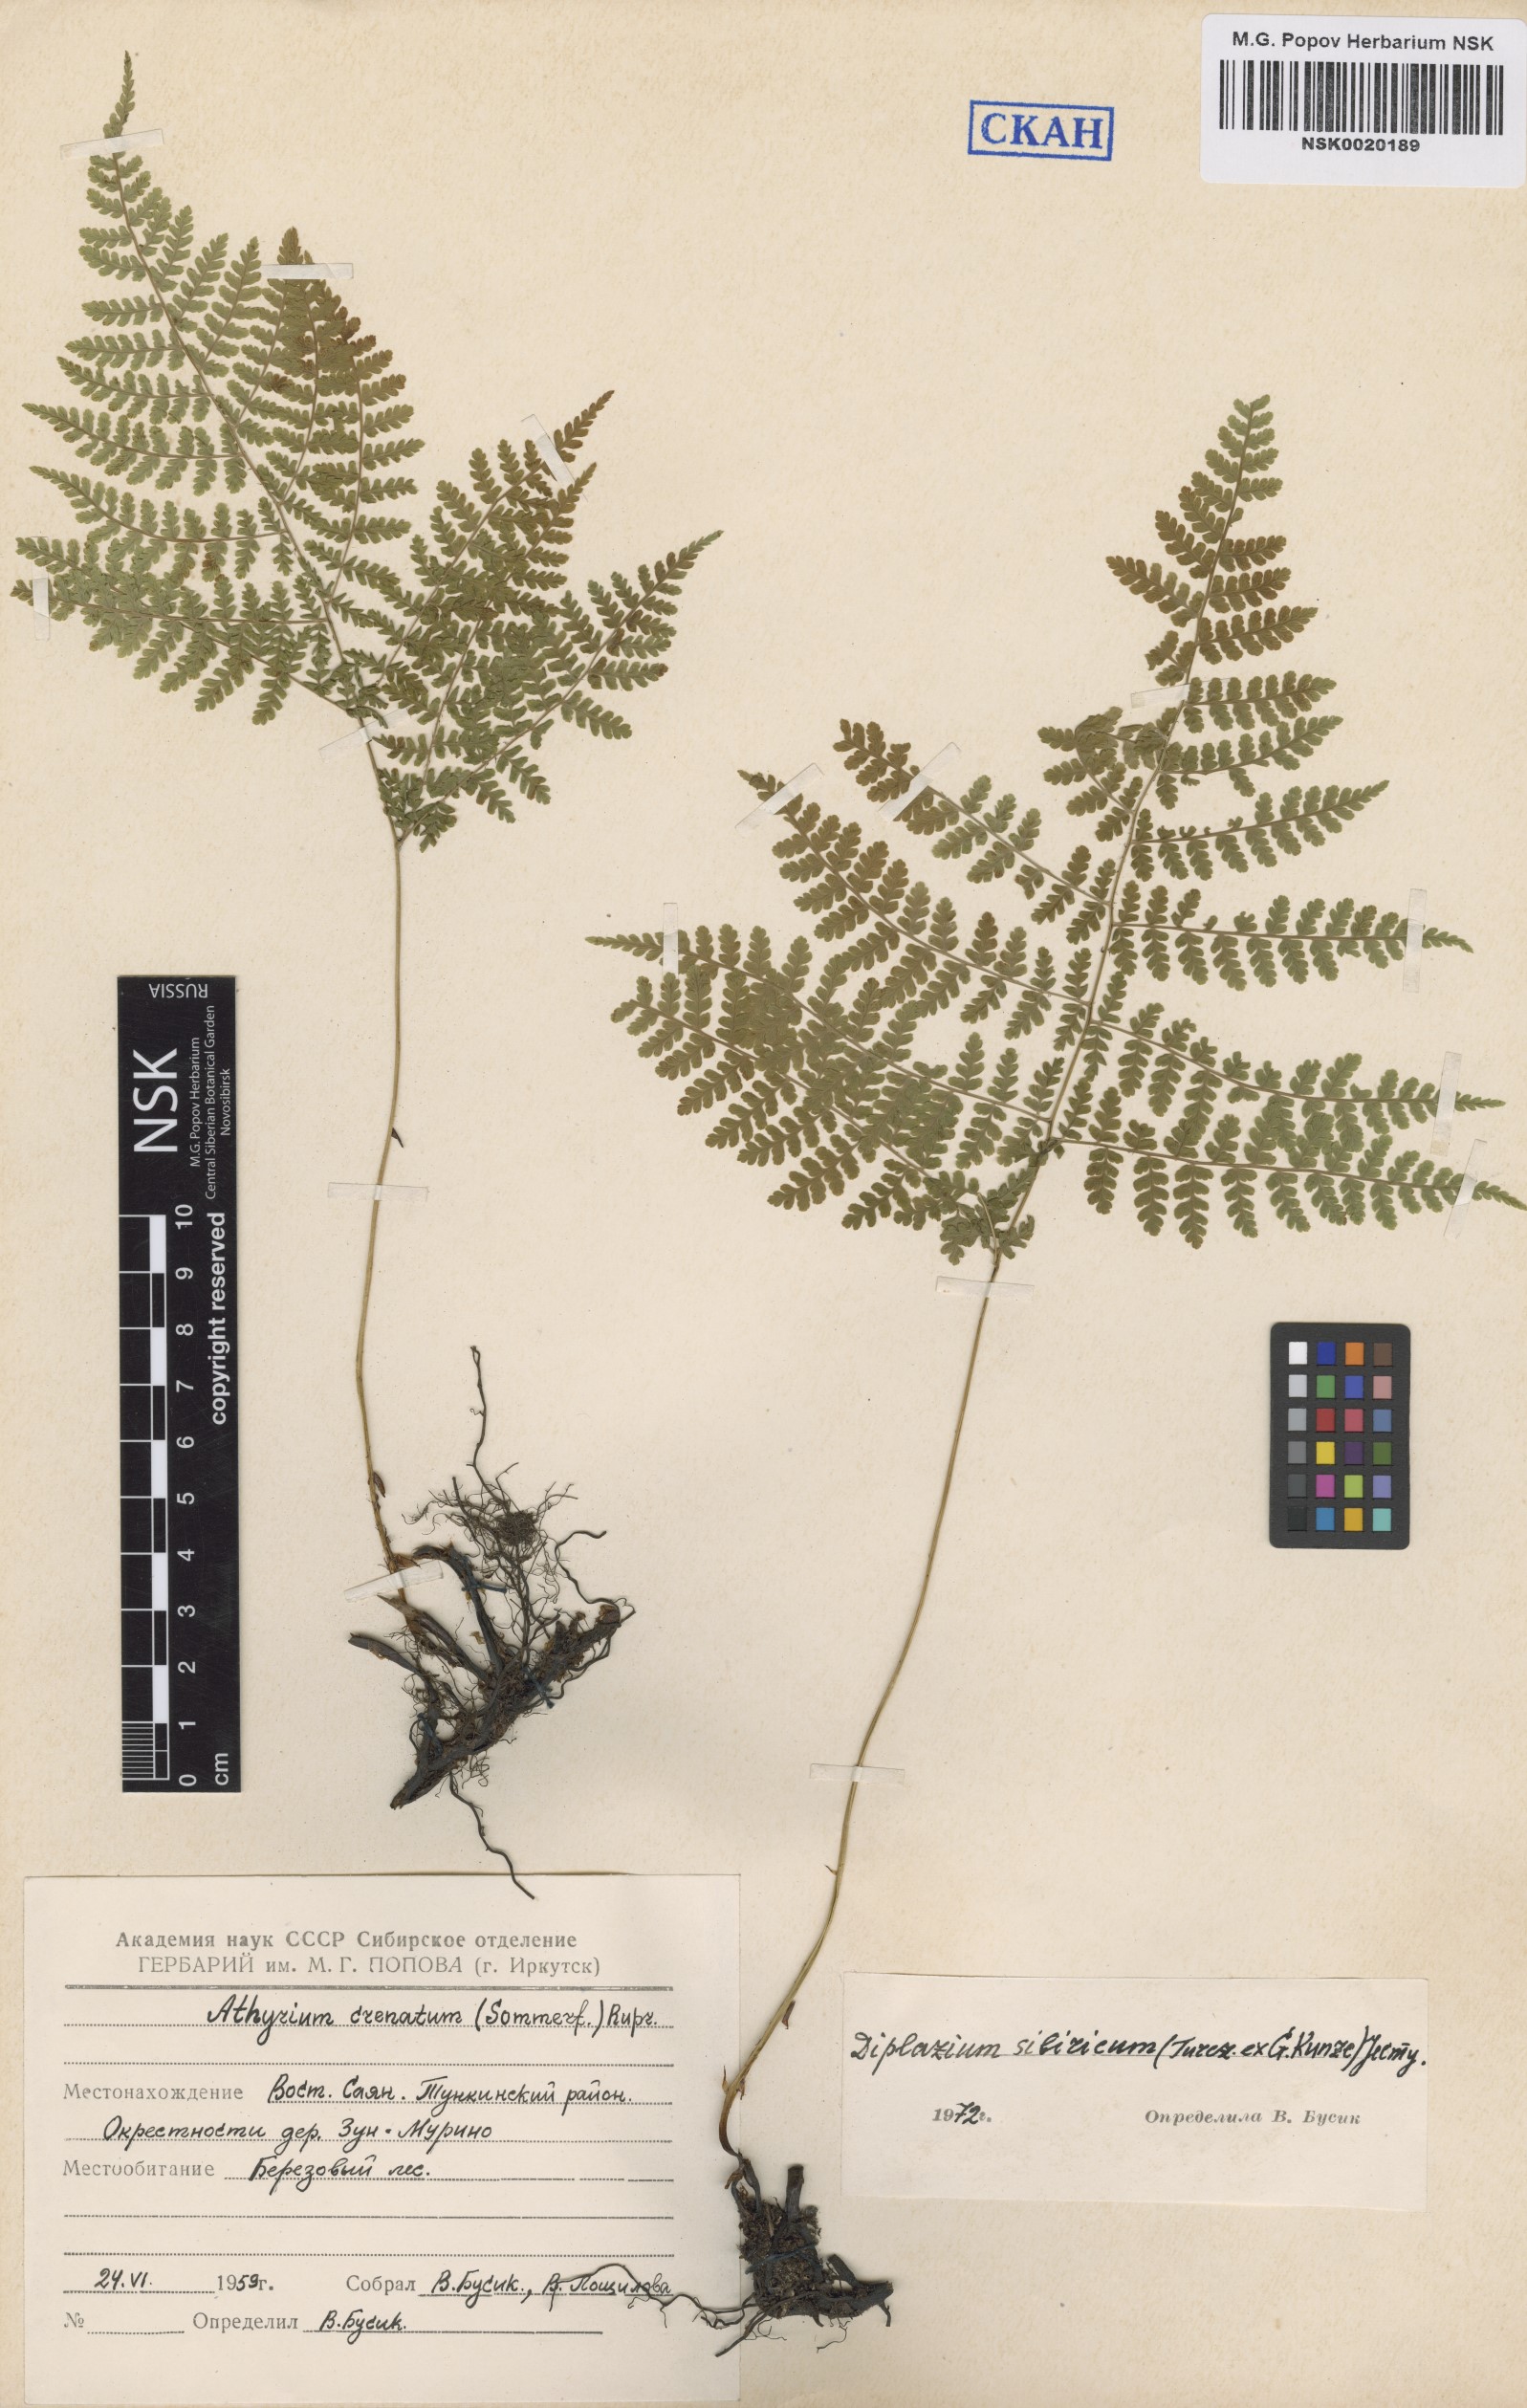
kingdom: Plantae
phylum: Tracheophyta
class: Polypodiopsida
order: Polypodiales
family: Athyriaceae
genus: Diplazium
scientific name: Diplazium sibiricum
